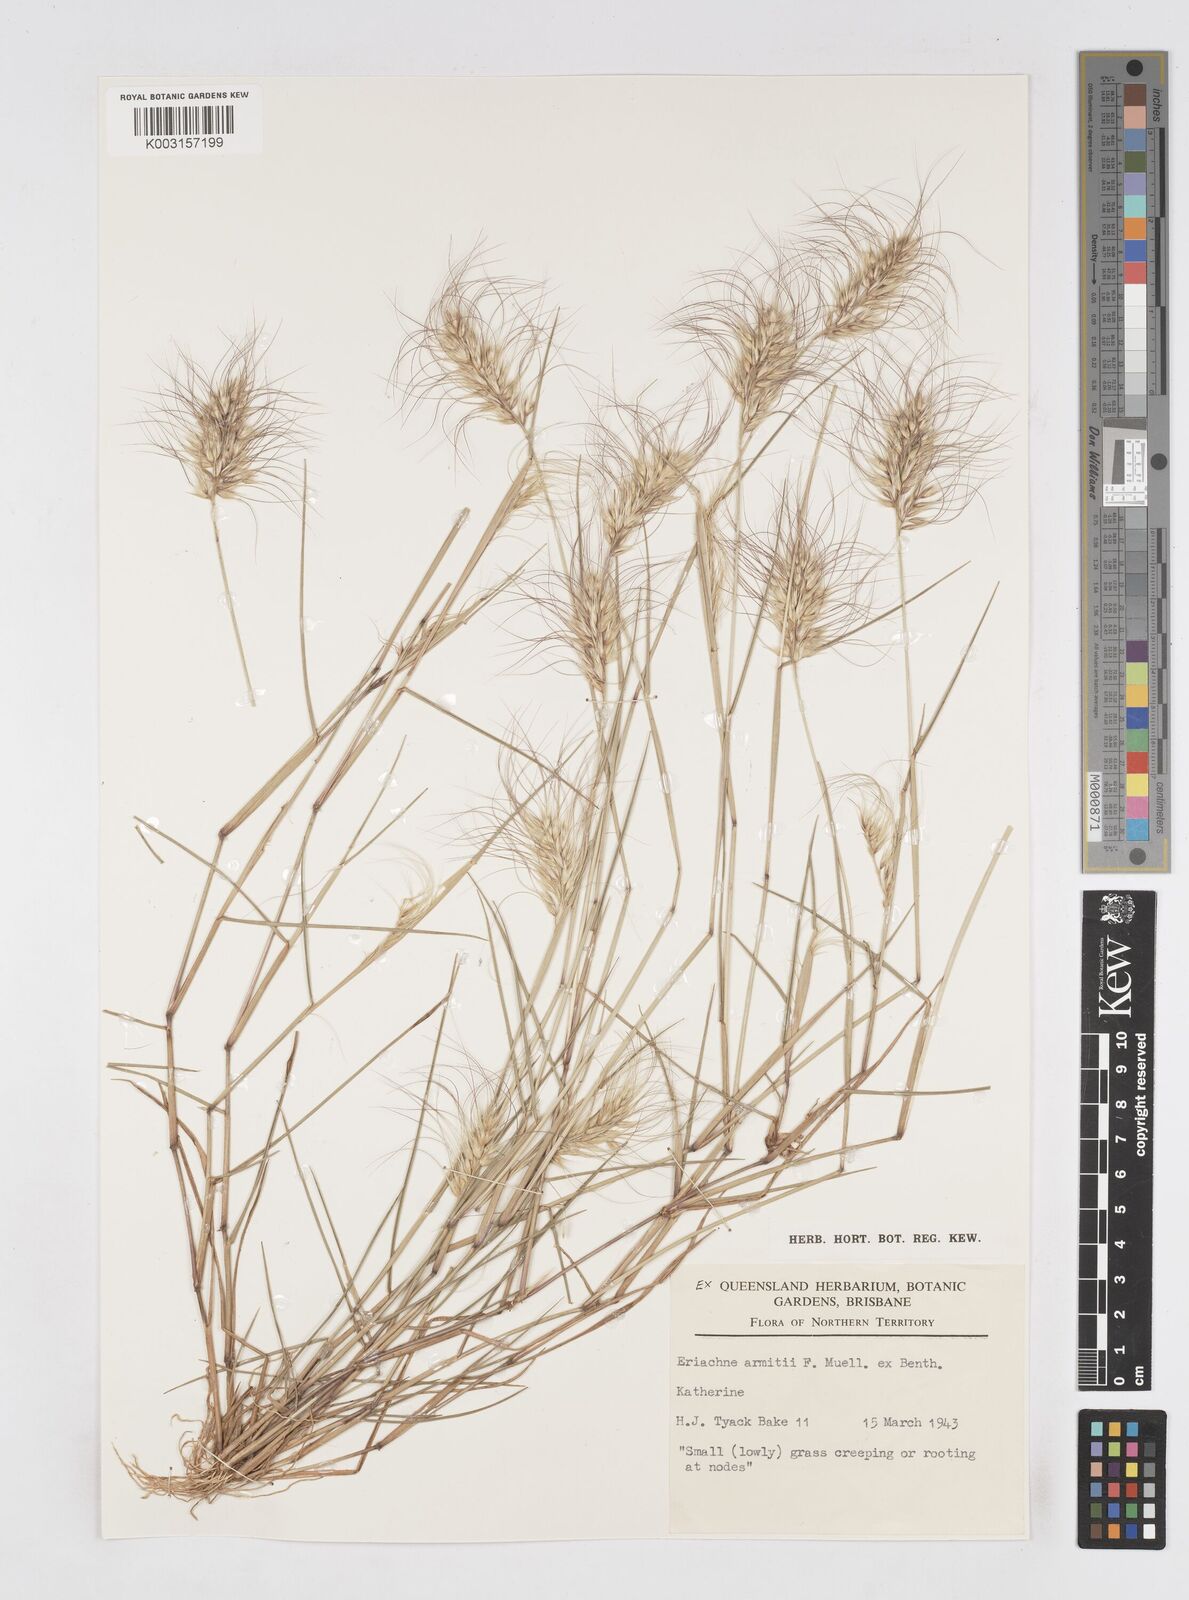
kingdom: Plantae
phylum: Tracheophyta
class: Liliopsida
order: Poales
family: Poaceae
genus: Eriachne
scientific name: Eriachne armitii
